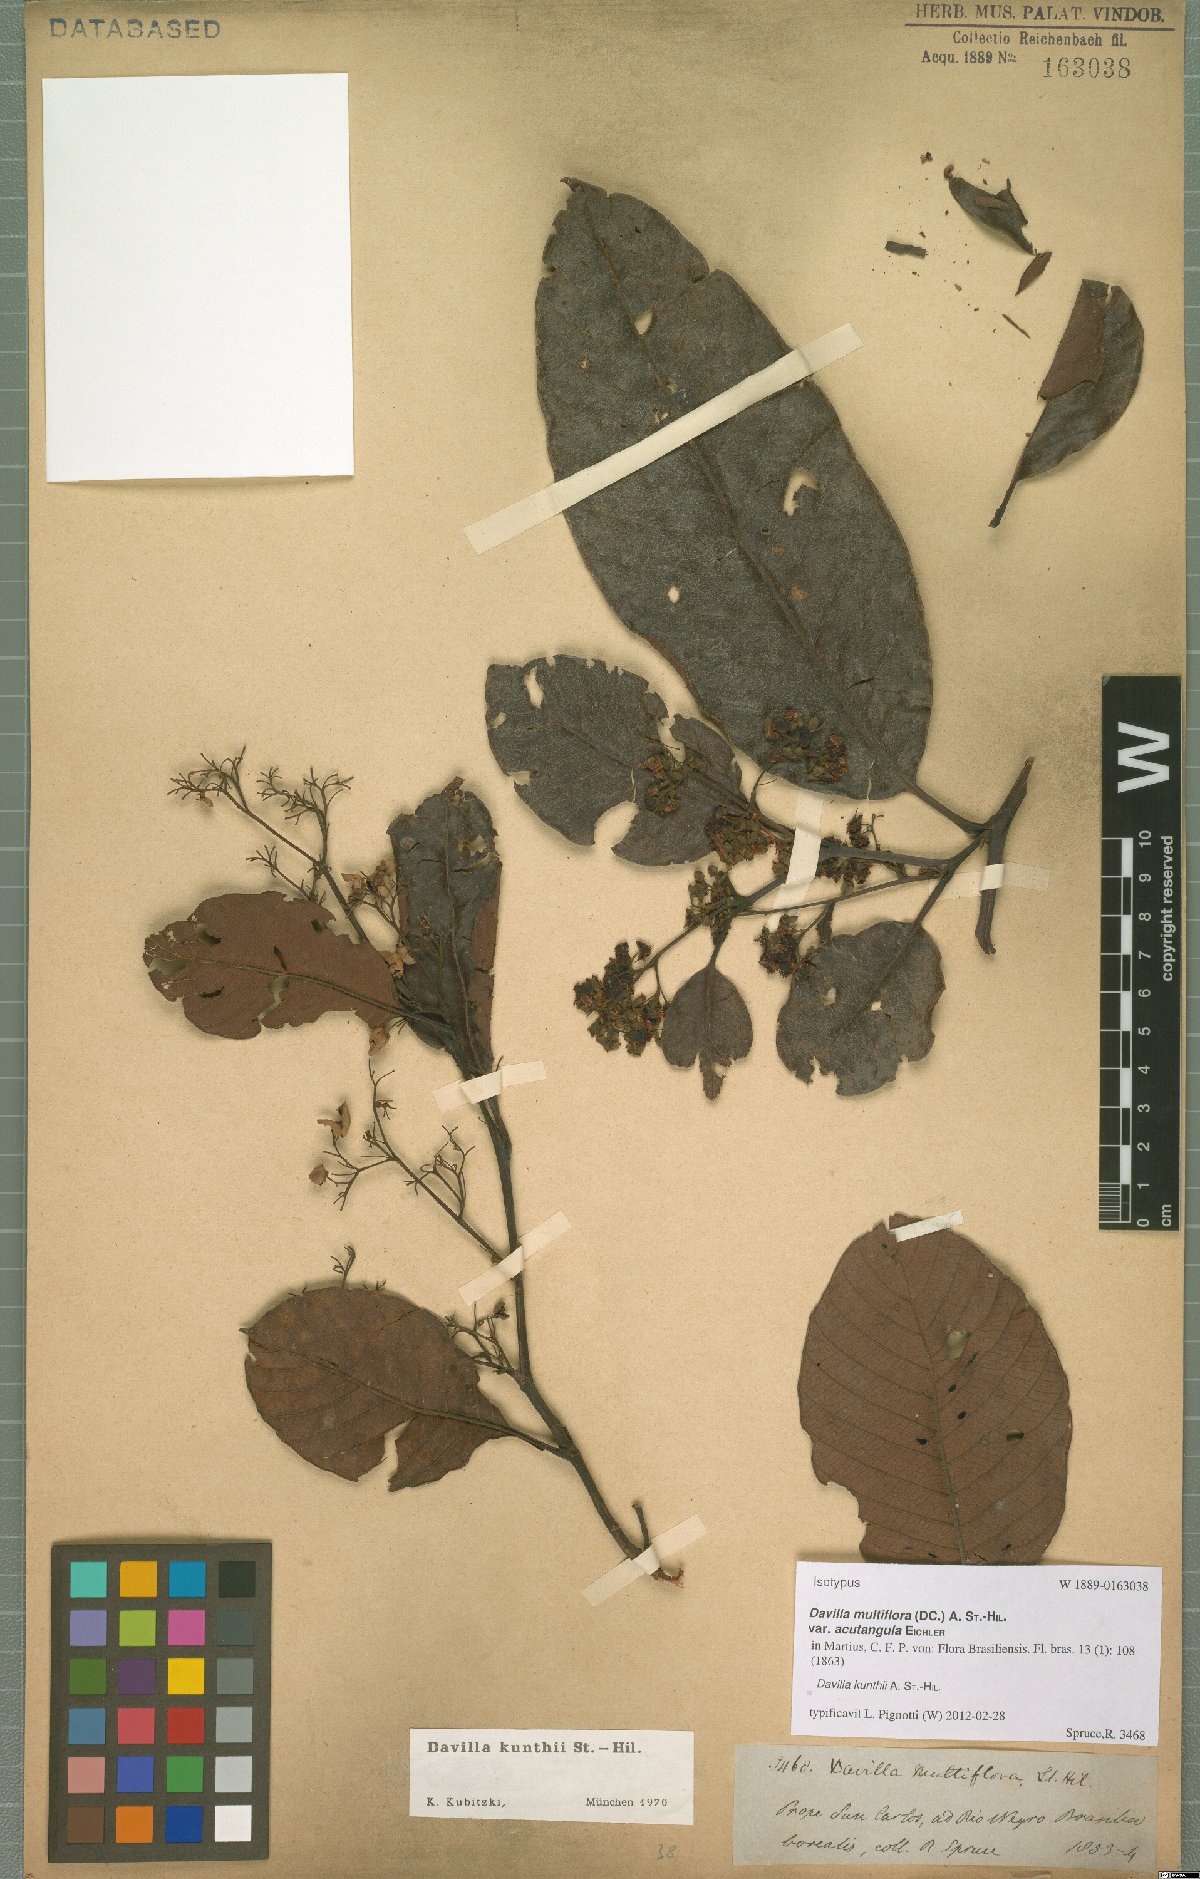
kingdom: Plantae
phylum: Tracheophyta
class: Magnoliopsida
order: Dilleniales
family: Dilleniaceae
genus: Davilla
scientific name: Davilla kunthii
